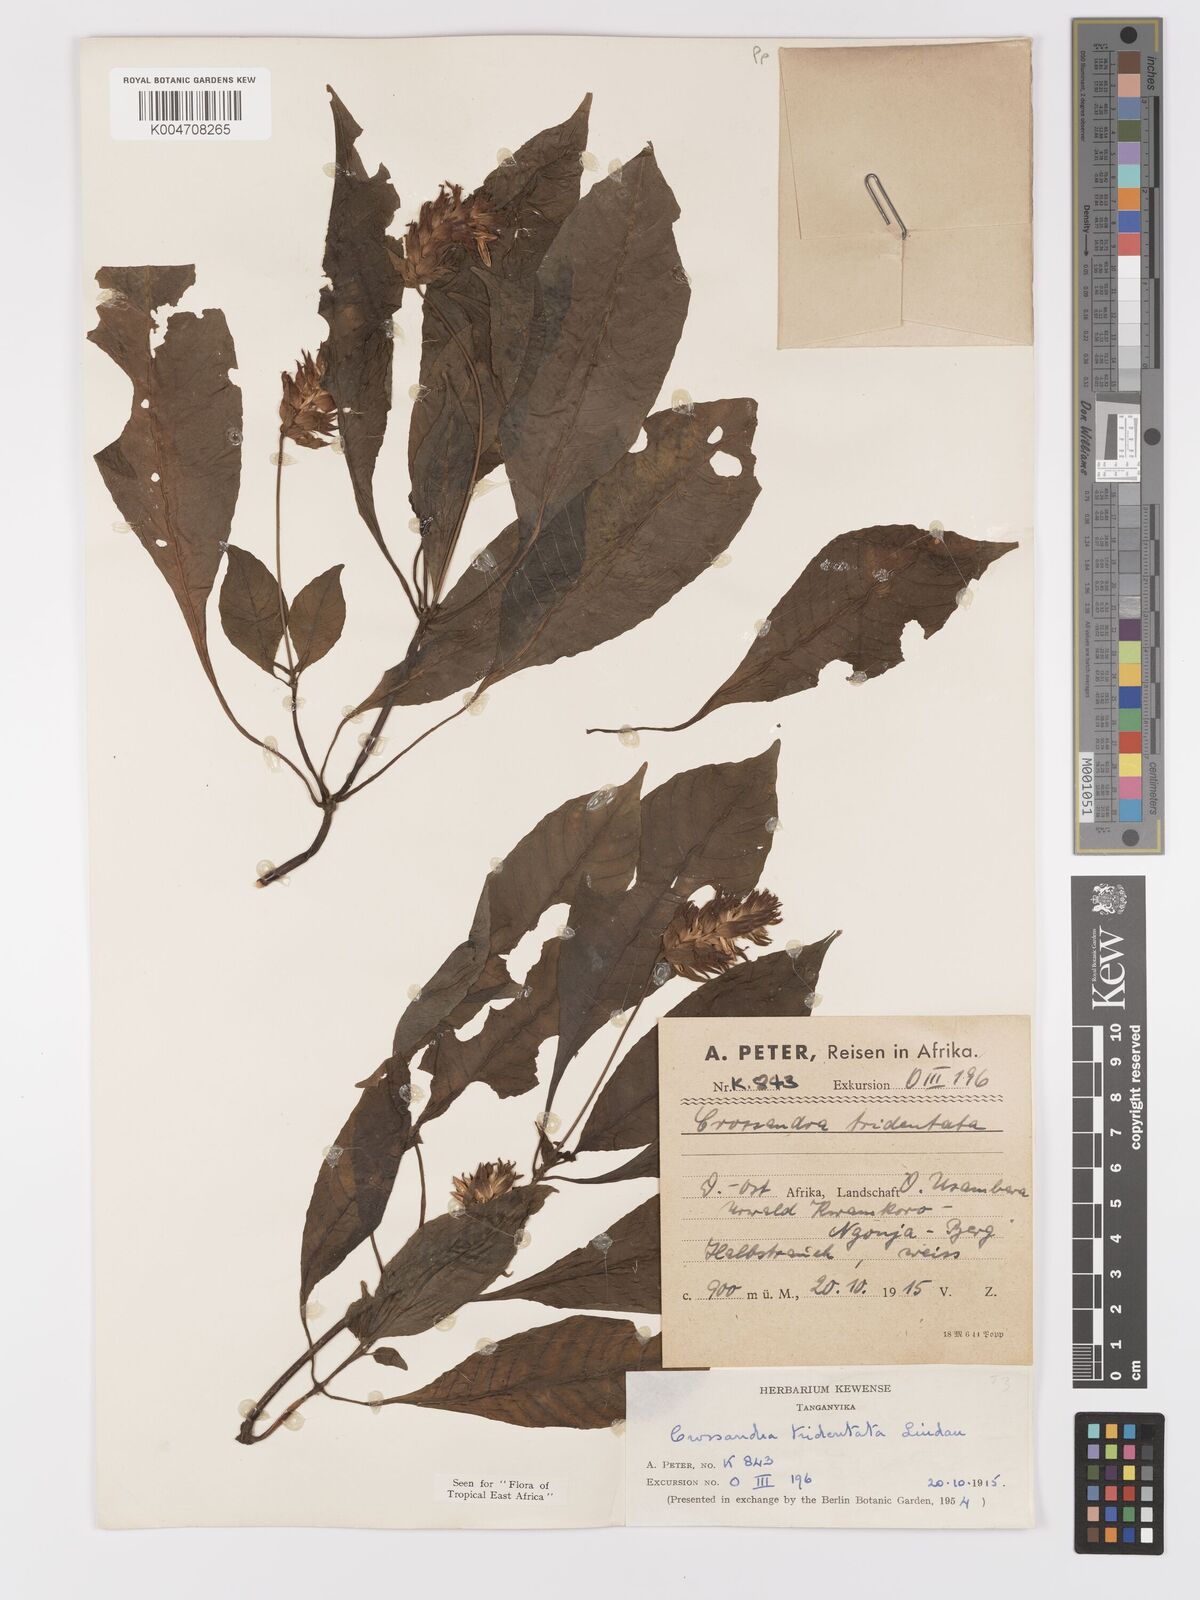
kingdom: Plantae
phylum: Tracheophyta
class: Magnoliopsida
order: Lamiales
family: Acanthaceae
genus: Crossandra
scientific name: Crossandra tridentata
